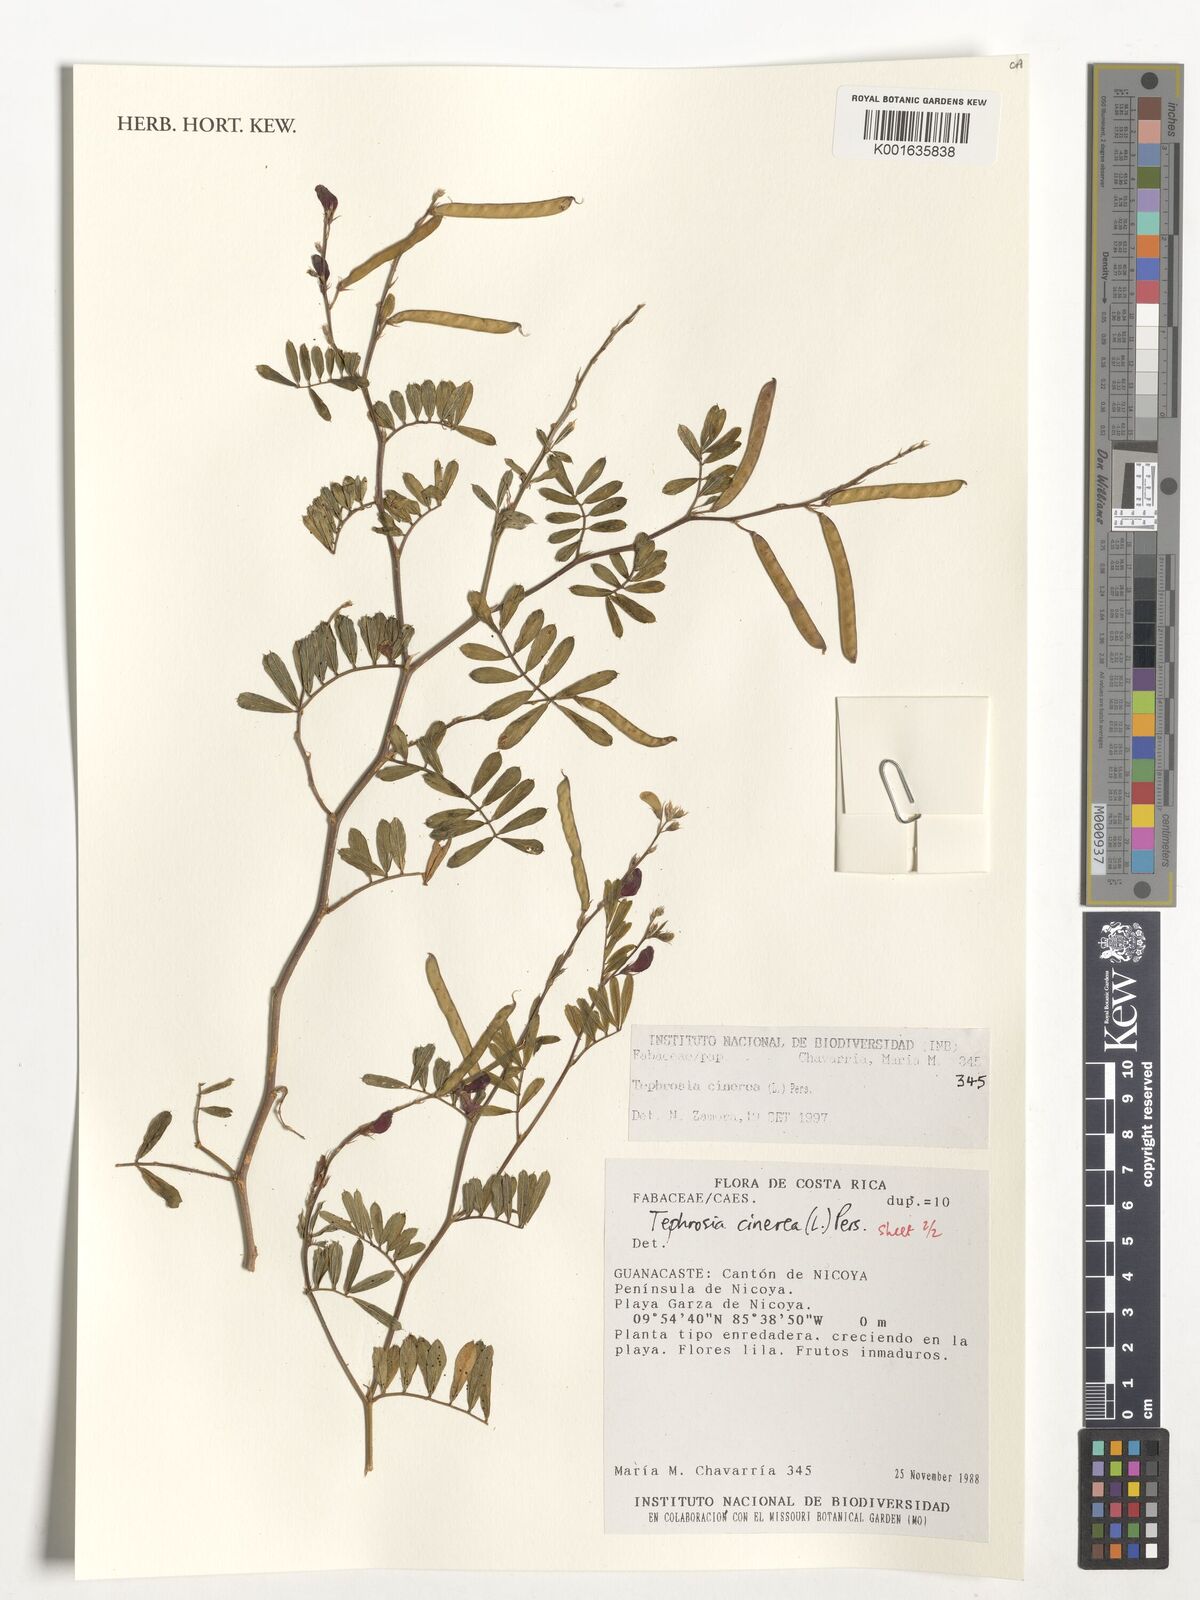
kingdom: Plantae
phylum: Tracheophyta
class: Magnoliopsida
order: Fabales
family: Fabaceae
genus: Tephrosia
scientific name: Tephrosia cinerea
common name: Ashen hoarypea
